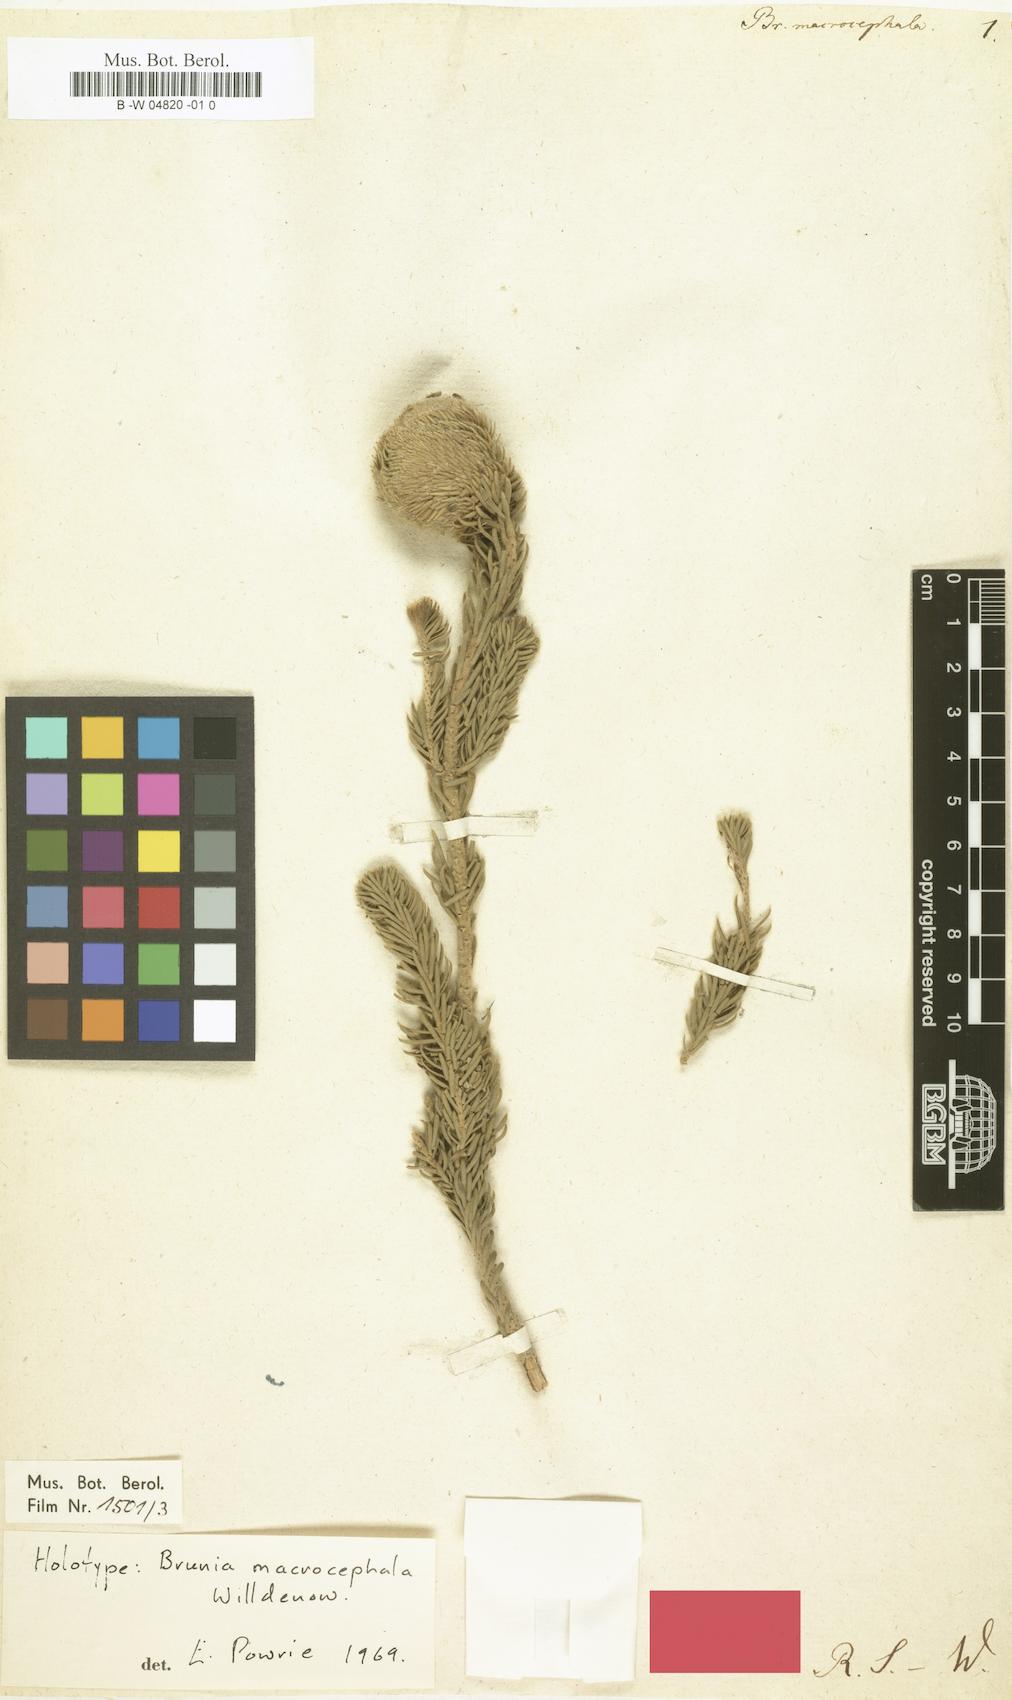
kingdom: Plantae
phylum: Tracheophyta
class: Magnoliopsida
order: Bruniales
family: Bruniaceae
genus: Brunia
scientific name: Brunia macrocephala
